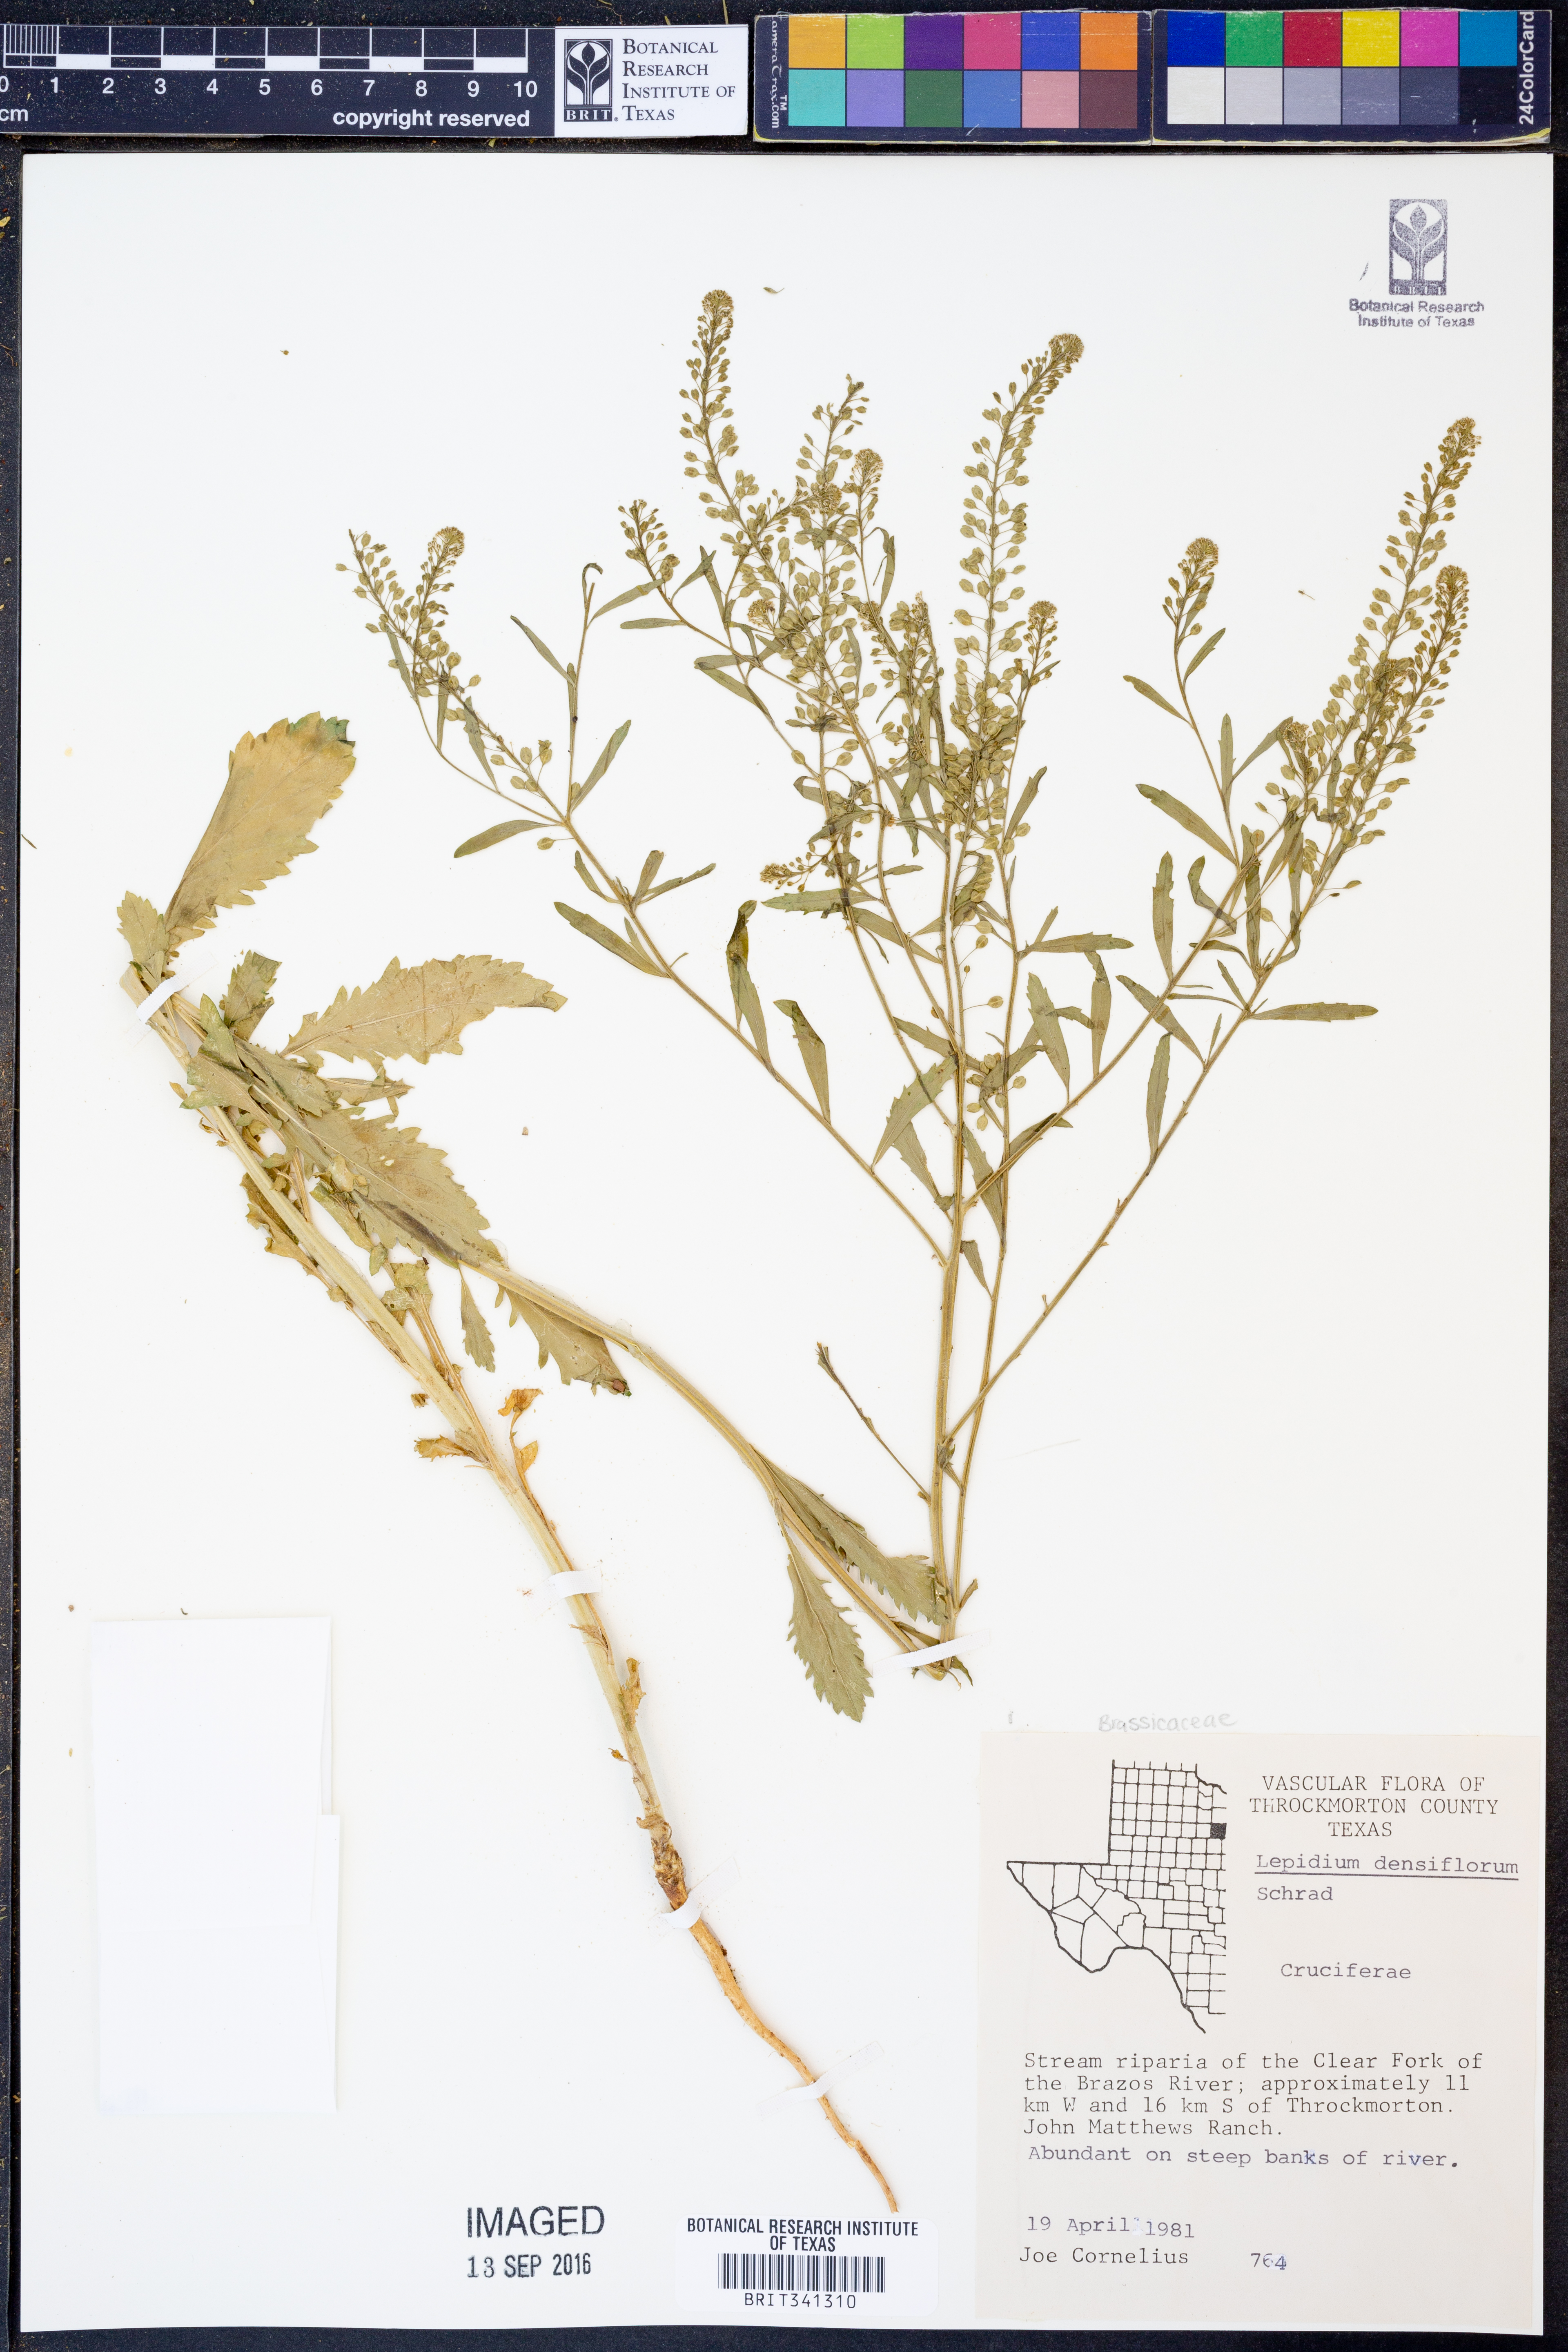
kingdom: Plantae
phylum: Tracheophyta
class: Magnoliopsida
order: Brassicales
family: Brassicaceae
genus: Lepidium
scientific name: Lepidium densiflorum
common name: Miner's pepperwort
